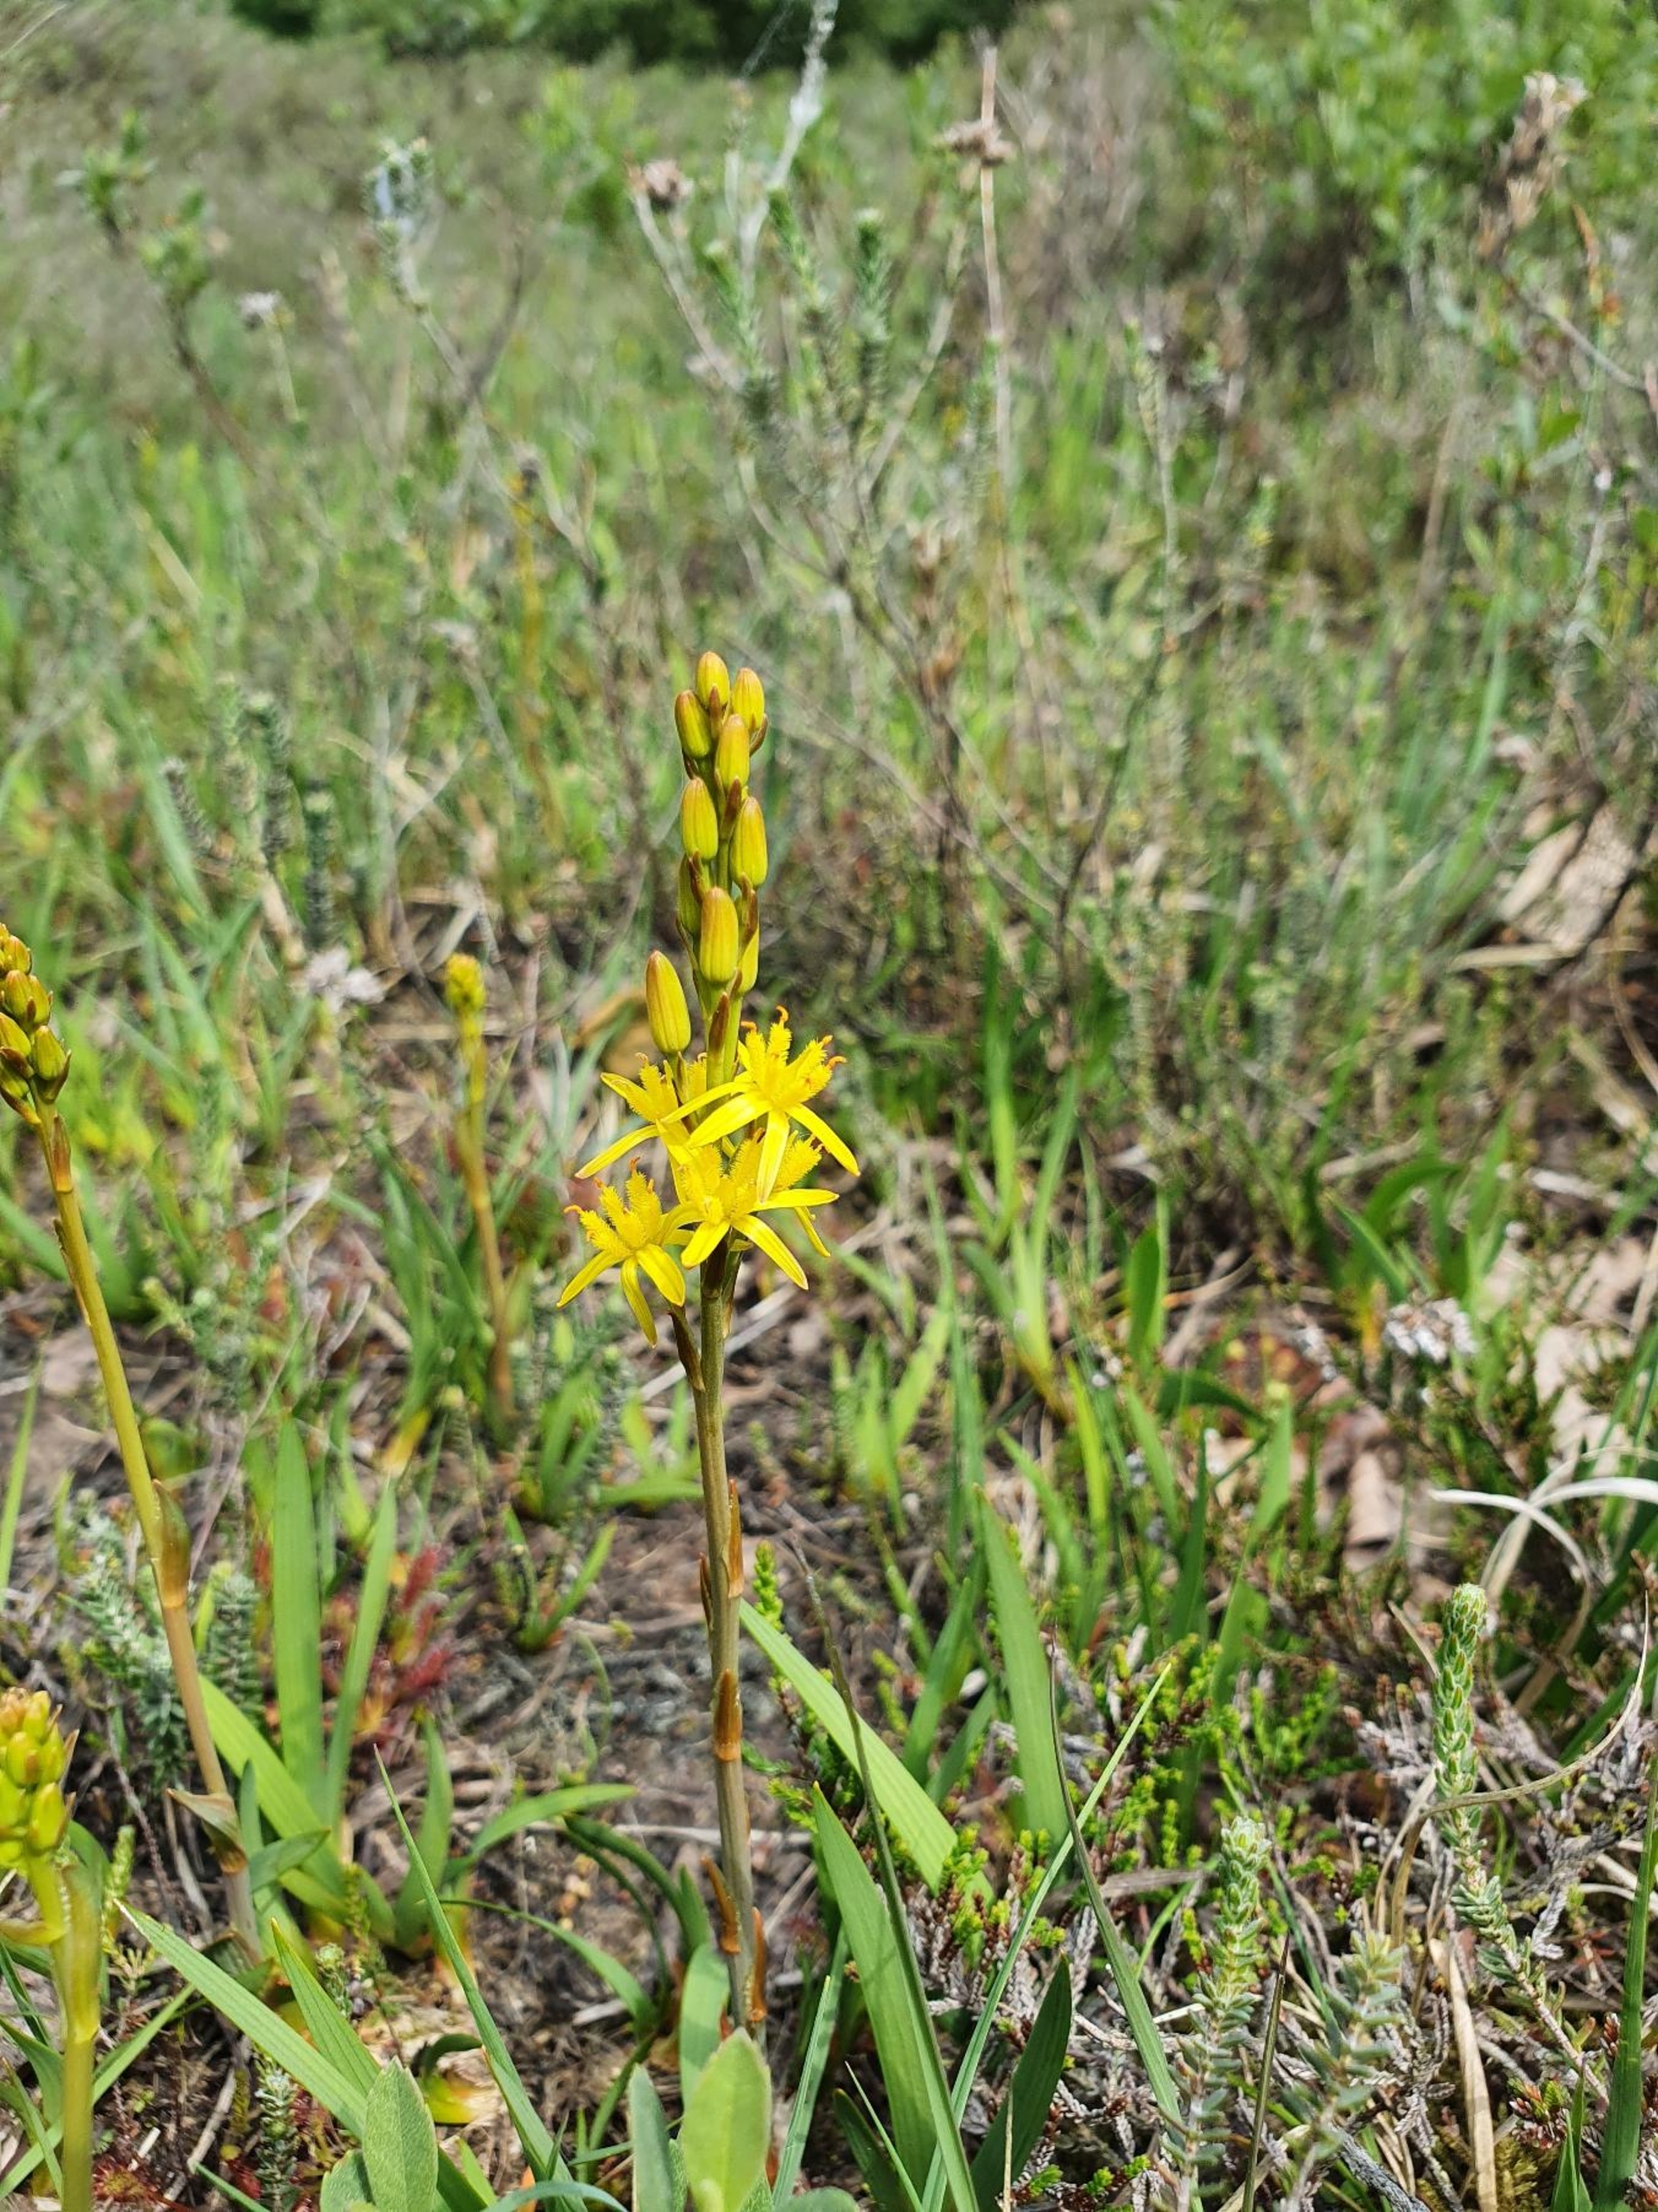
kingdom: Plantae
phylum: Tracheophyta
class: Liliopsida
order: Dioscoreales
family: Nartheciaceae
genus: Narthecium
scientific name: Narthecium ossifragum
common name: Benbræk
